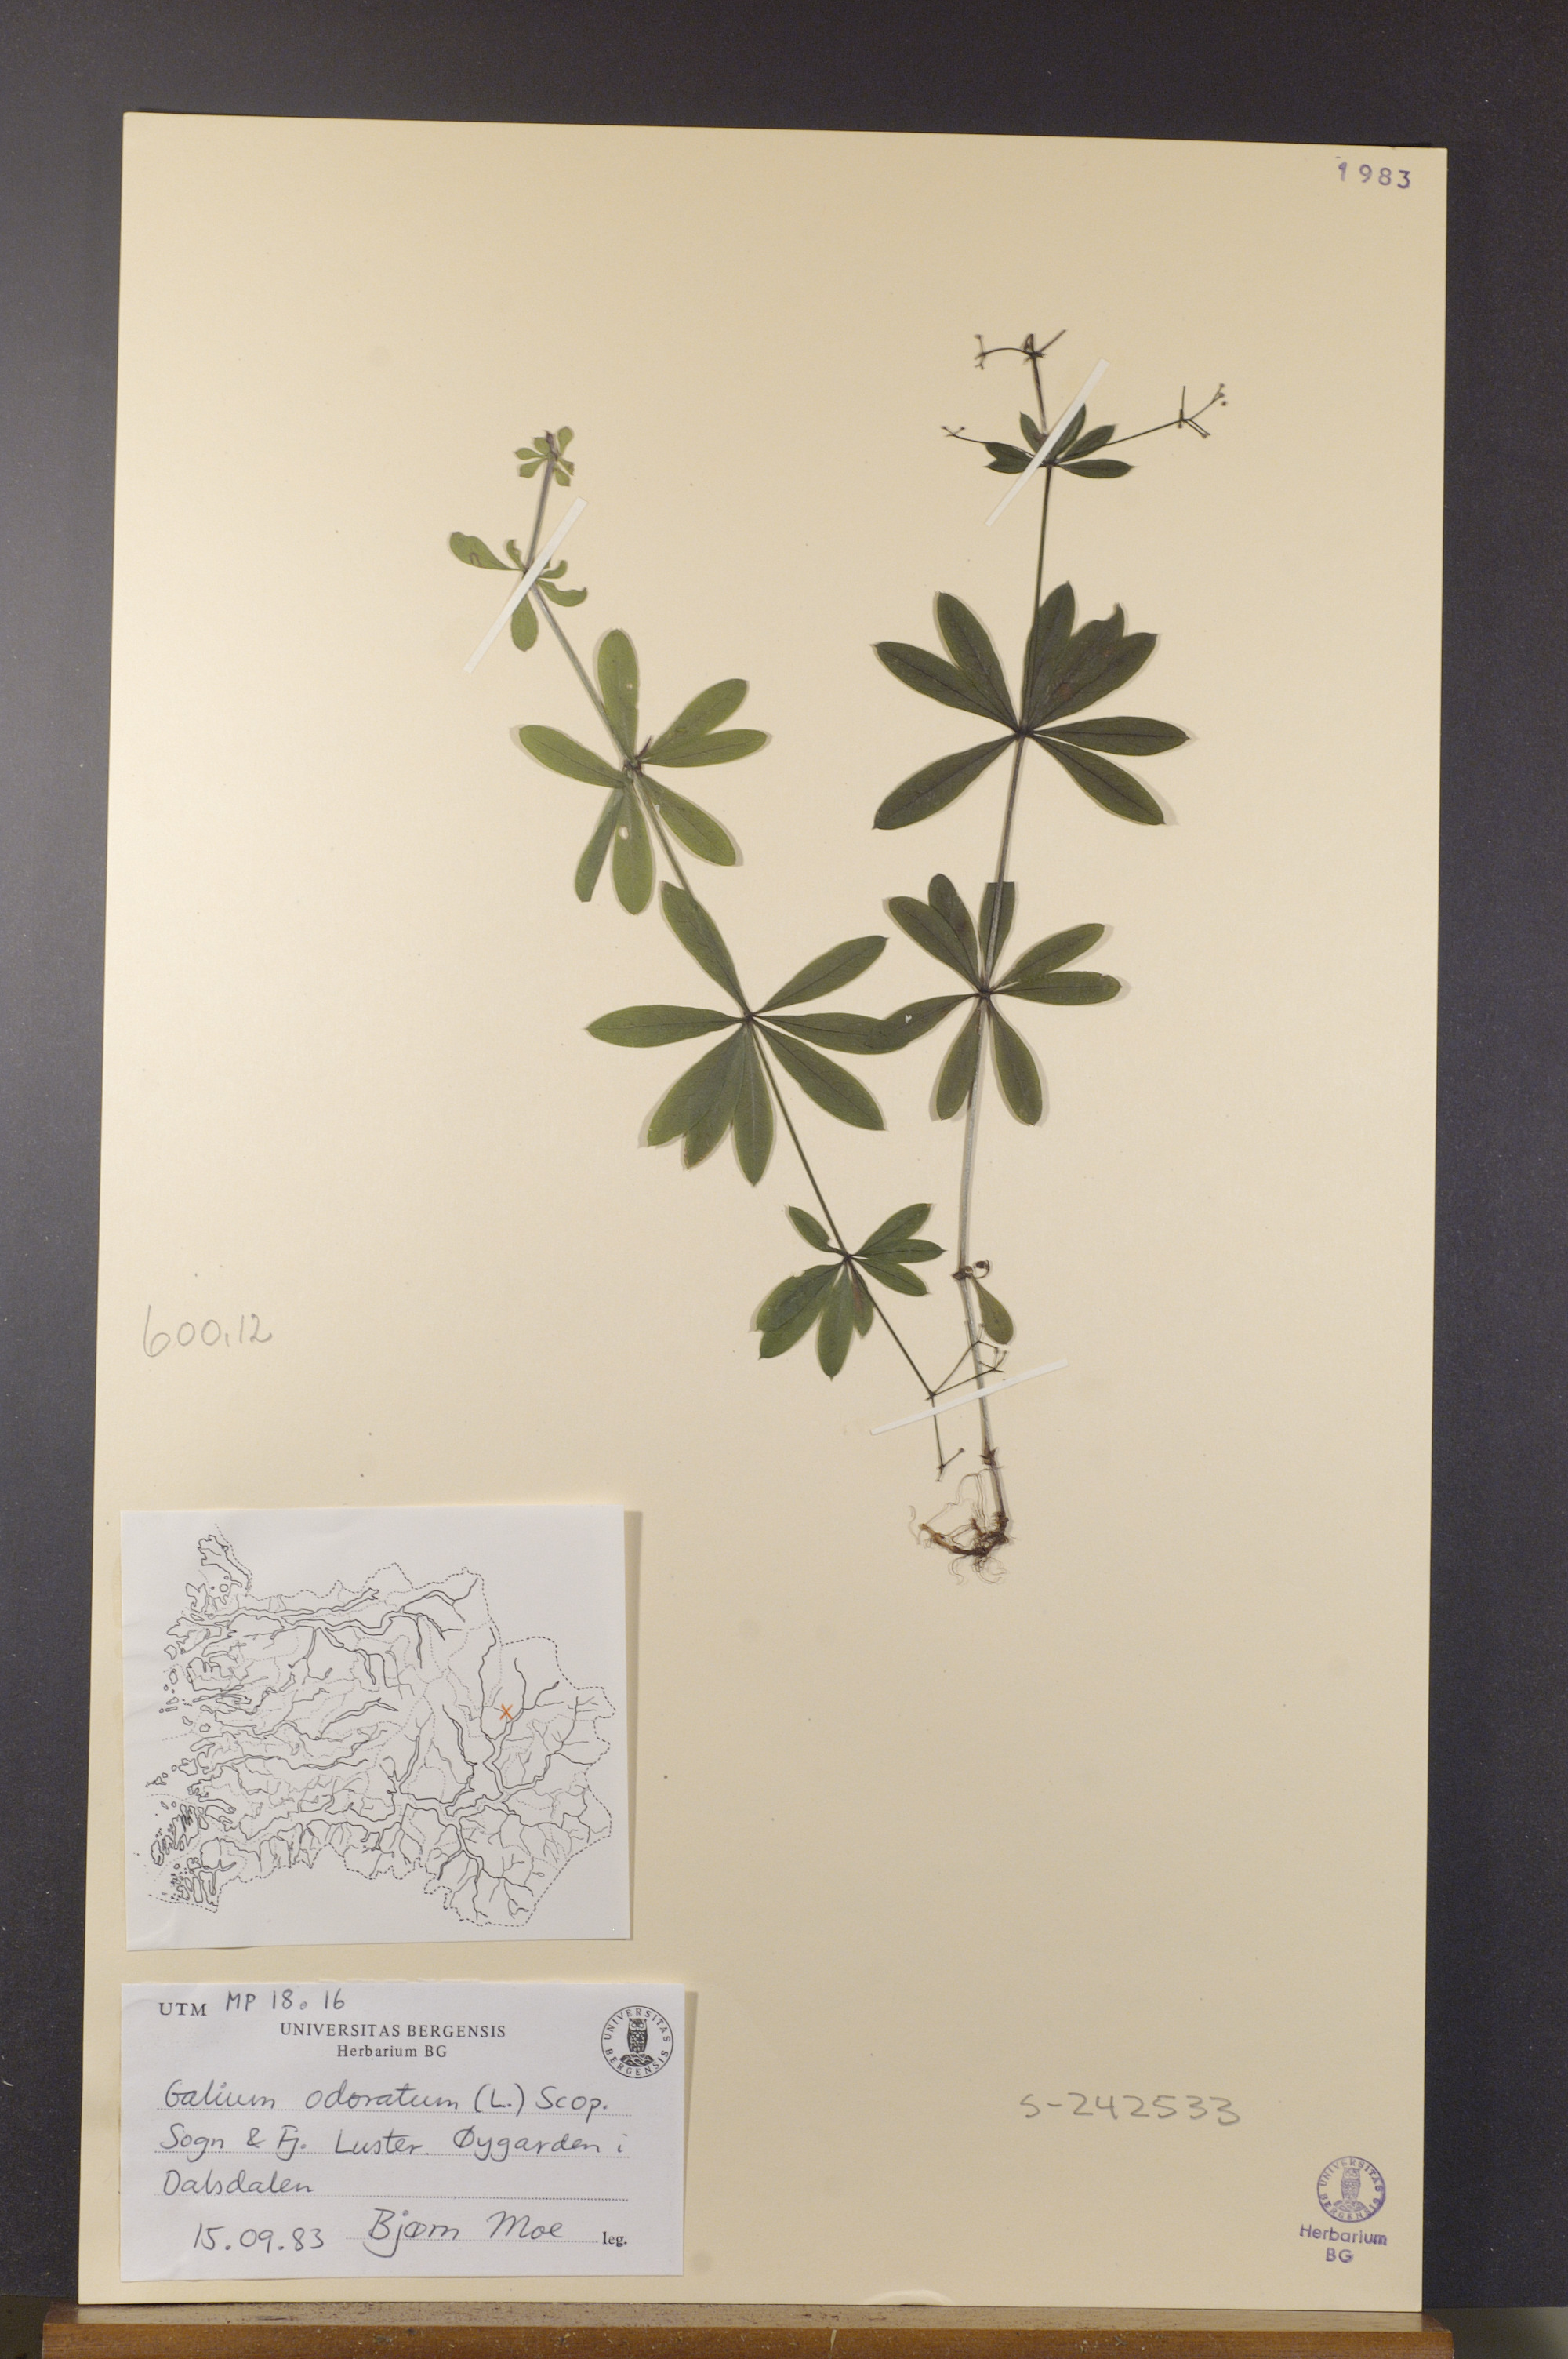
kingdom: Plantae
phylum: Tracheophyta
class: Magnoliopsida
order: Gentianales
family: Rubiaceae
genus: Galium
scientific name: Galium odoratum
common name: Sweet woodruff
